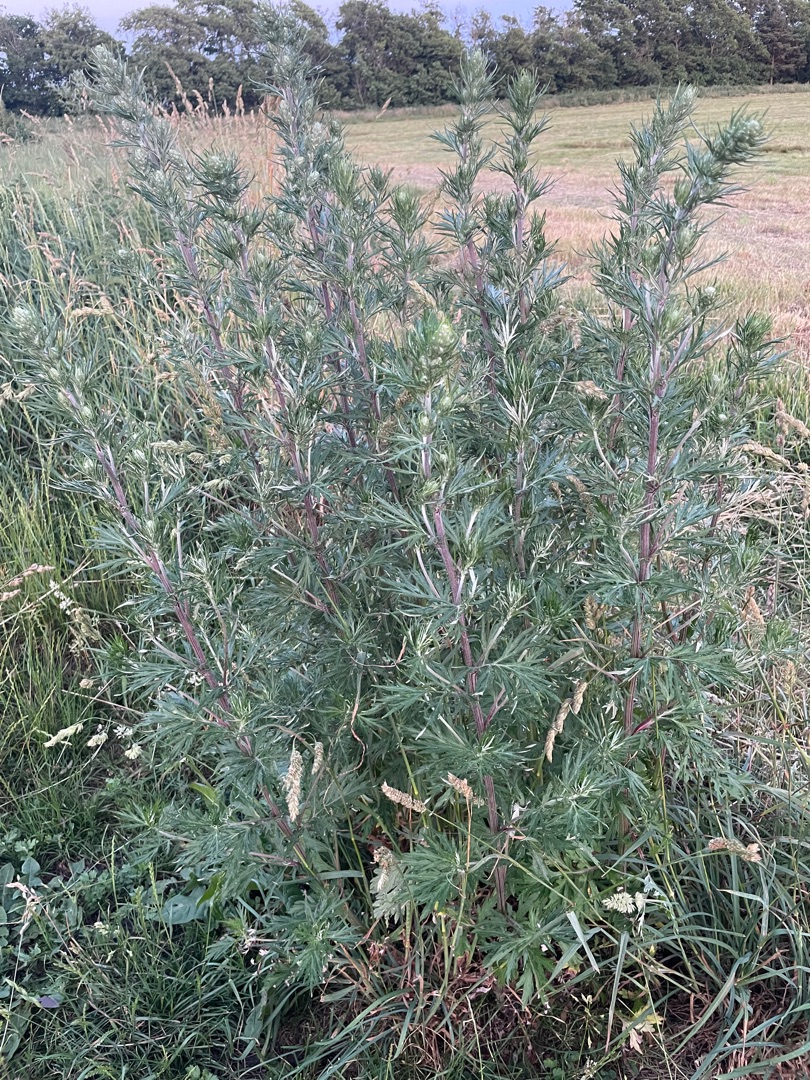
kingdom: Plantae
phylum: Tracheophyta
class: Magnoliopsida
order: Asterales
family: Asteraceae
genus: Artemisia
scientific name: Artemisia vulgaris
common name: Grå-bynke
